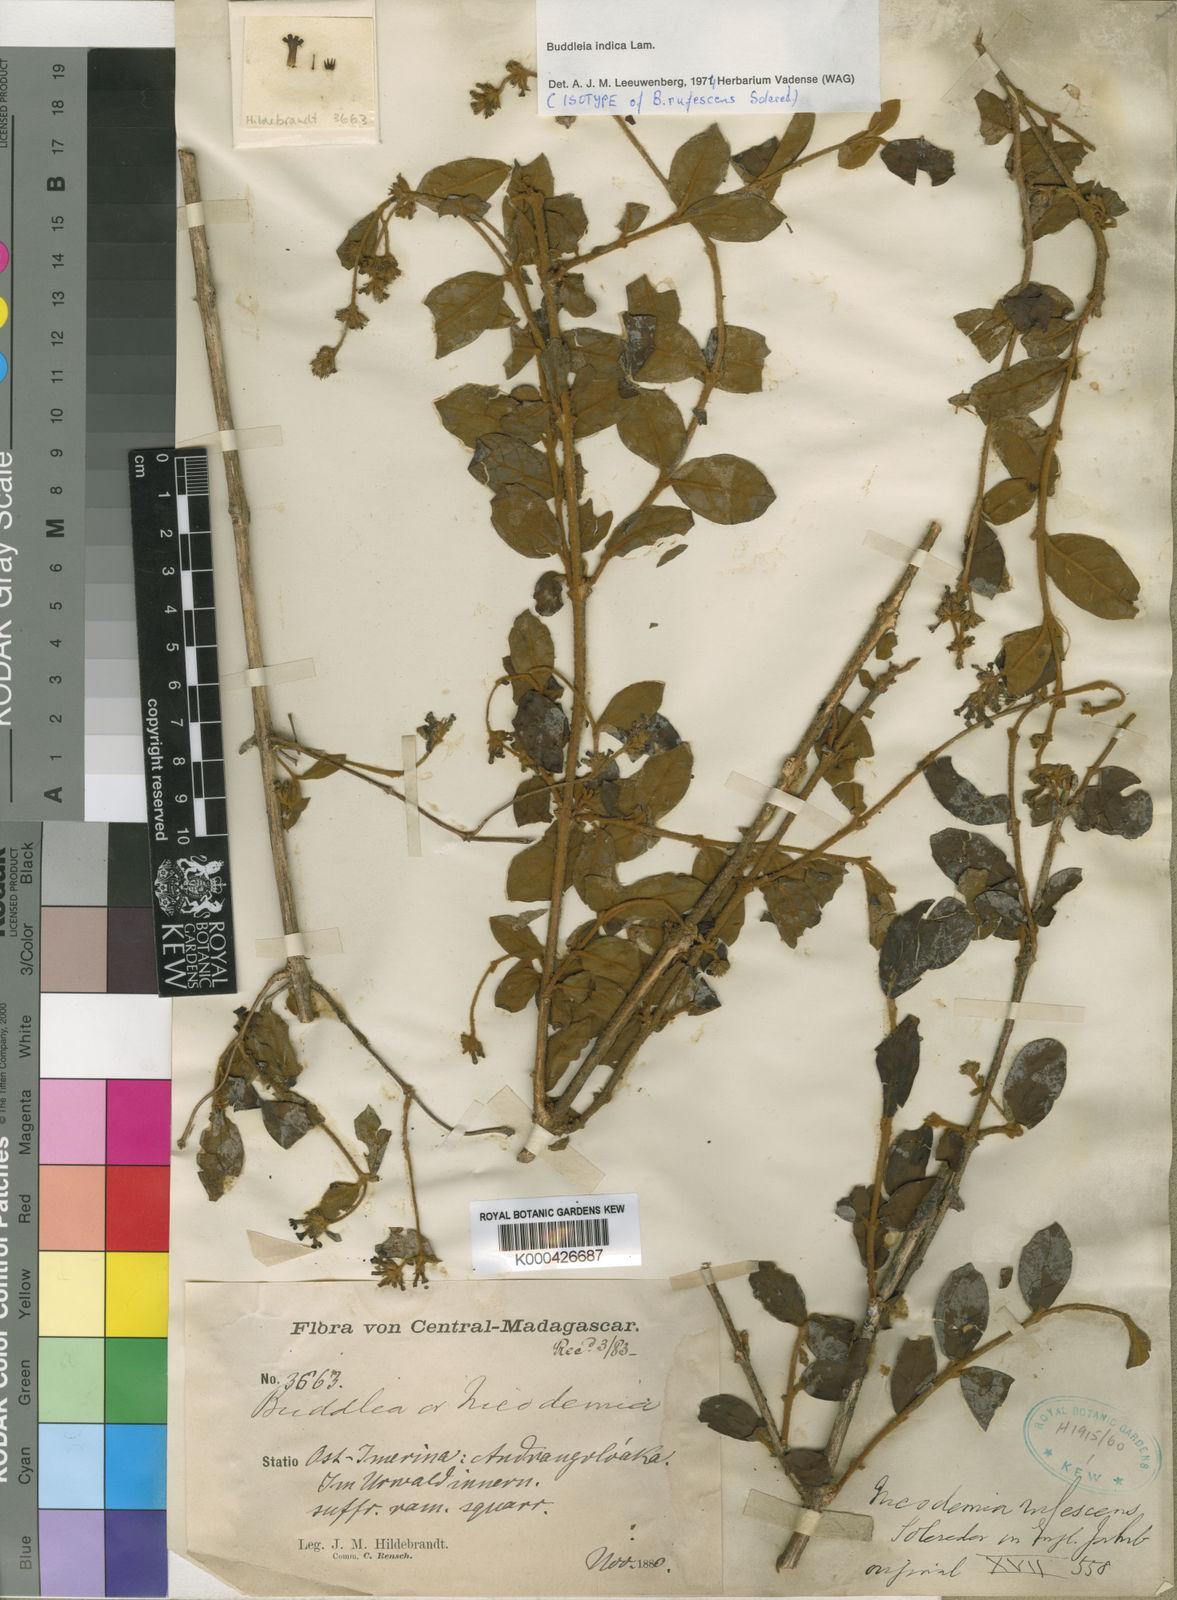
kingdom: Plantae
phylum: Tracheophyta
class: Magnoliopsida
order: Lamiales
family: Scrophulariaceae
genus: Buddleja
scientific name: Buddleja indica
